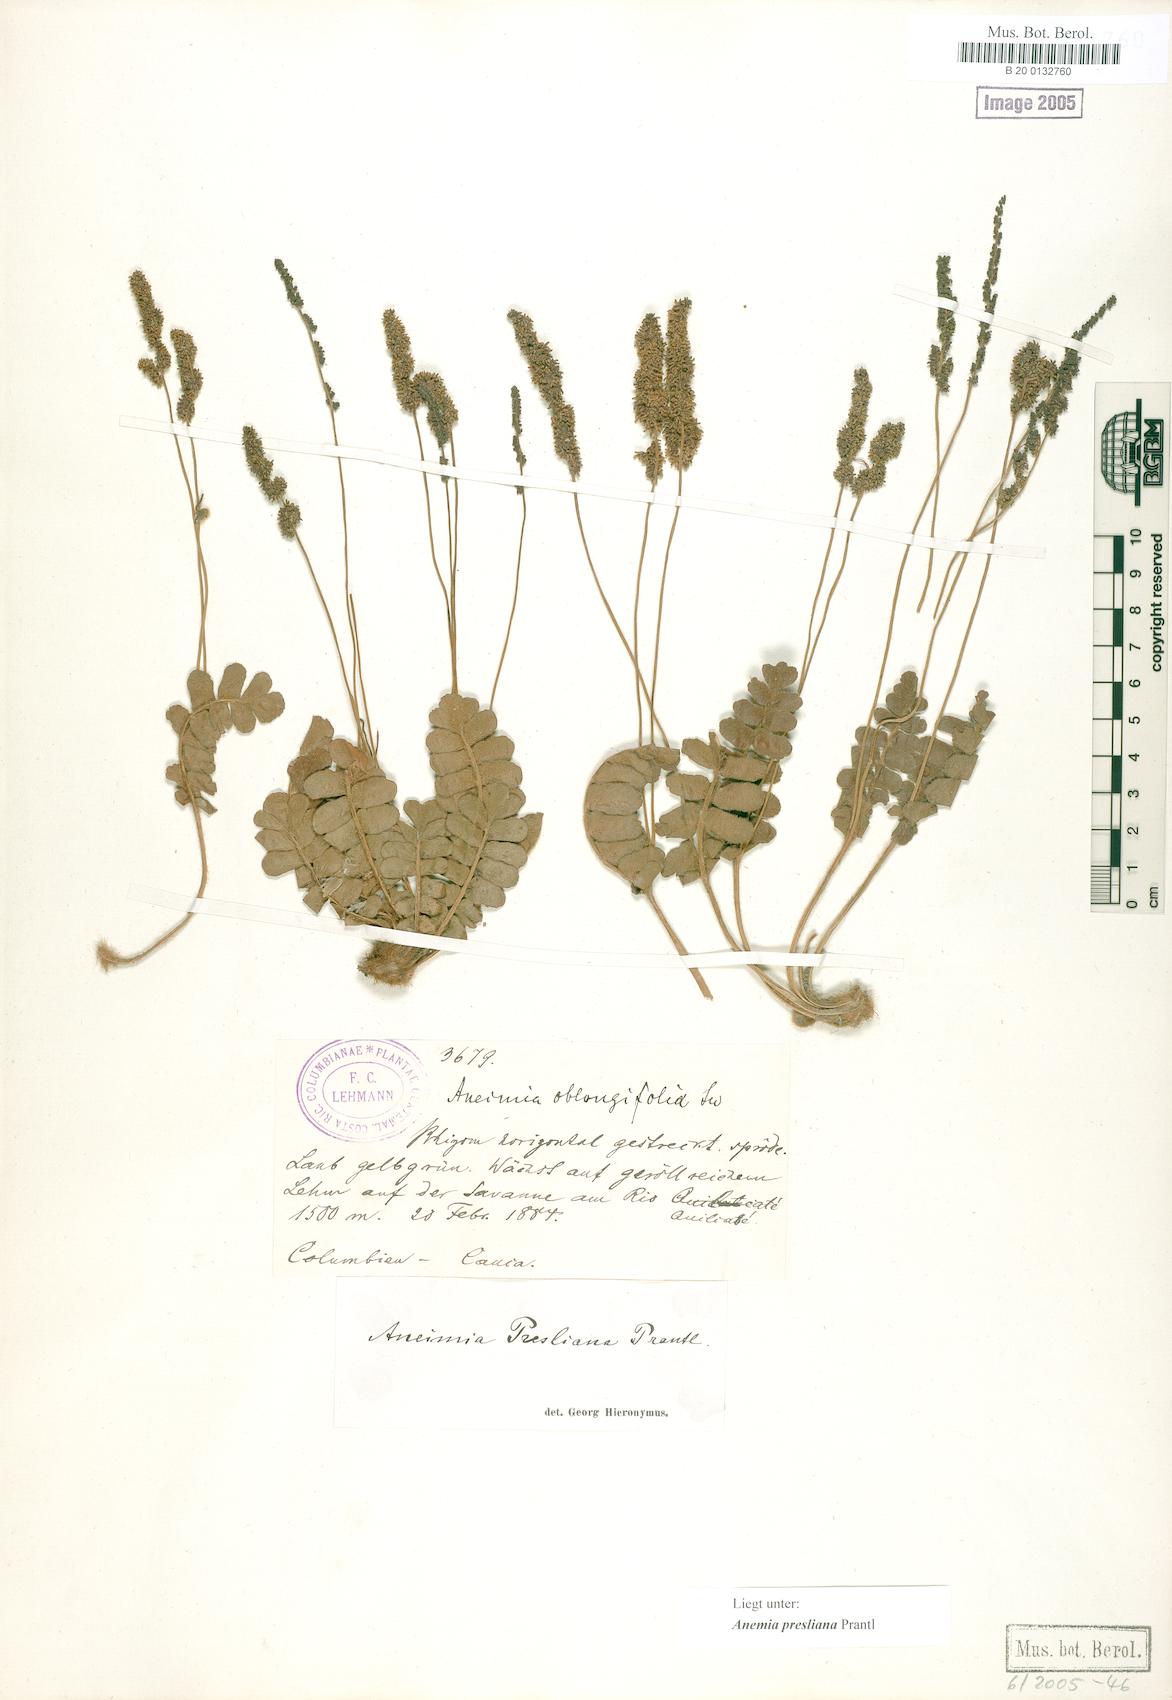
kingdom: Plantae
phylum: Tracheophyta
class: Polypodiopsida
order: Schizaeales
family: Anemiaceae
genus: Anemia
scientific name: Anemia presliana
